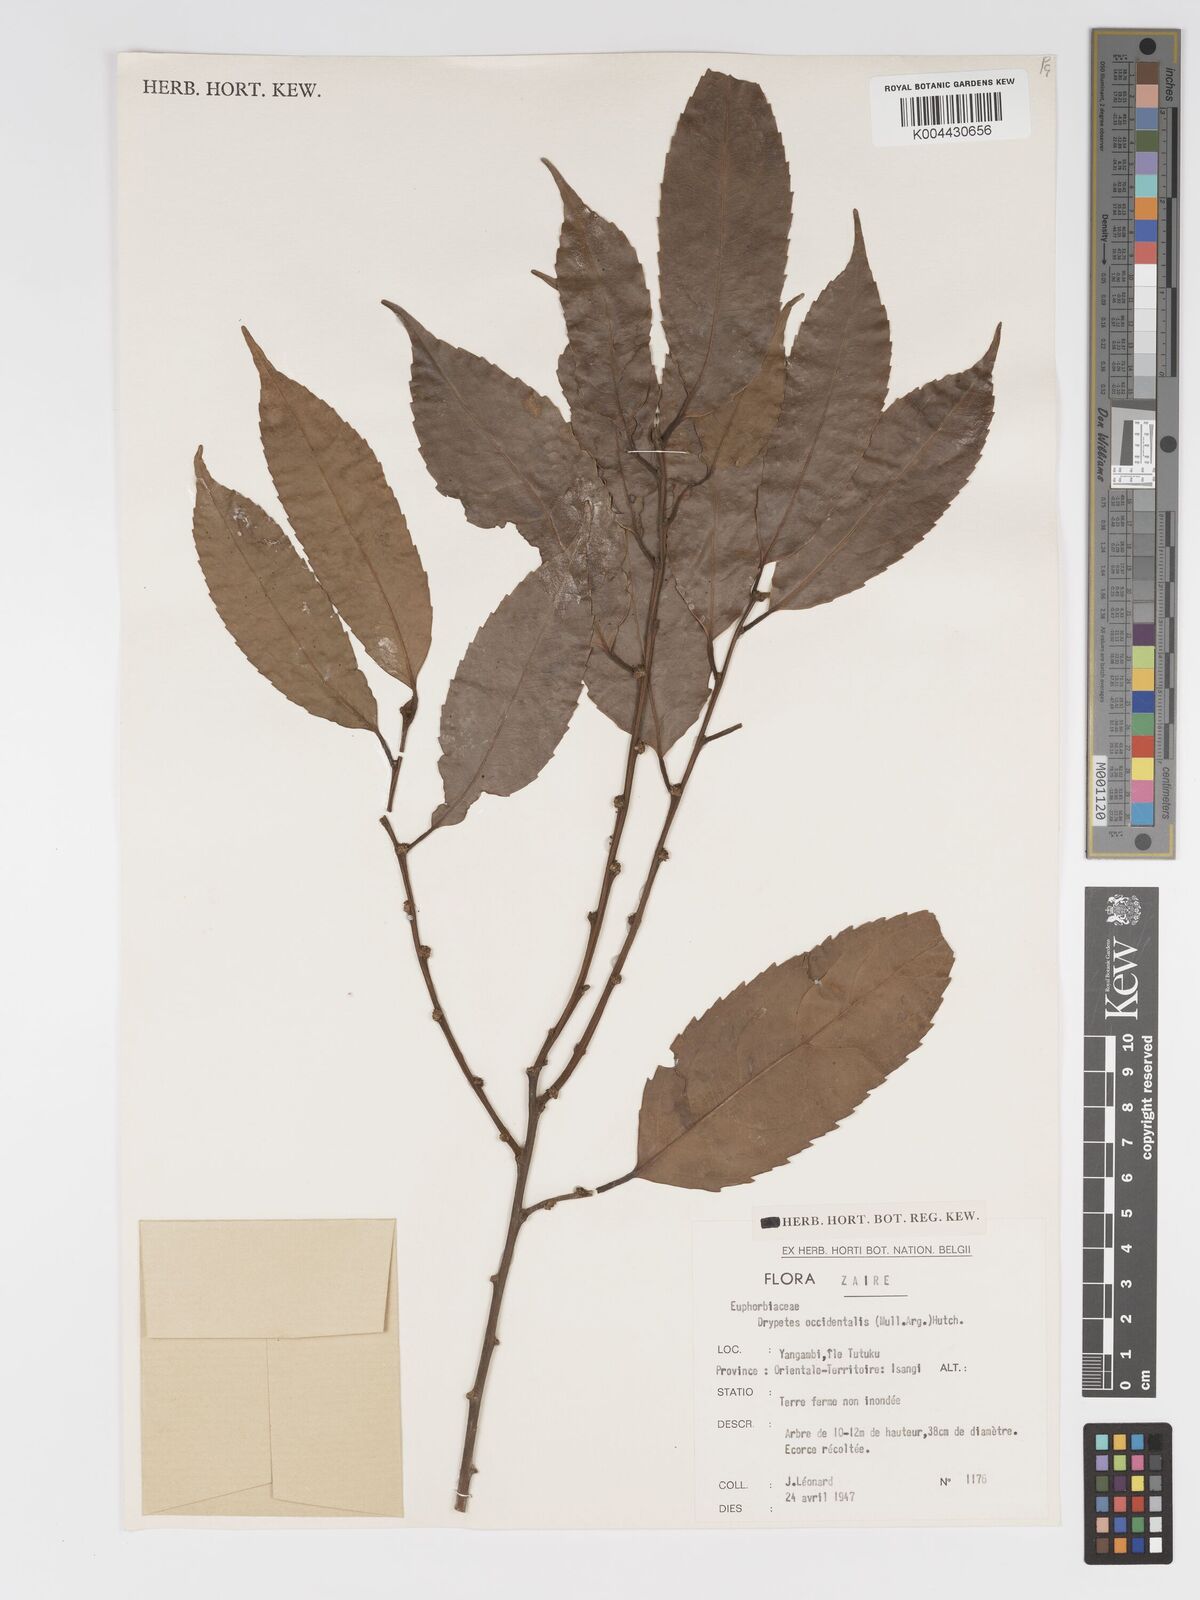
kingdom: Plantae
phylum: Tracheophyta
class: Magnoliopsida
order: Malpighiales
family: Putranjivaceae
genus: Drypetes
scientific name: Drypetes occidentalis
